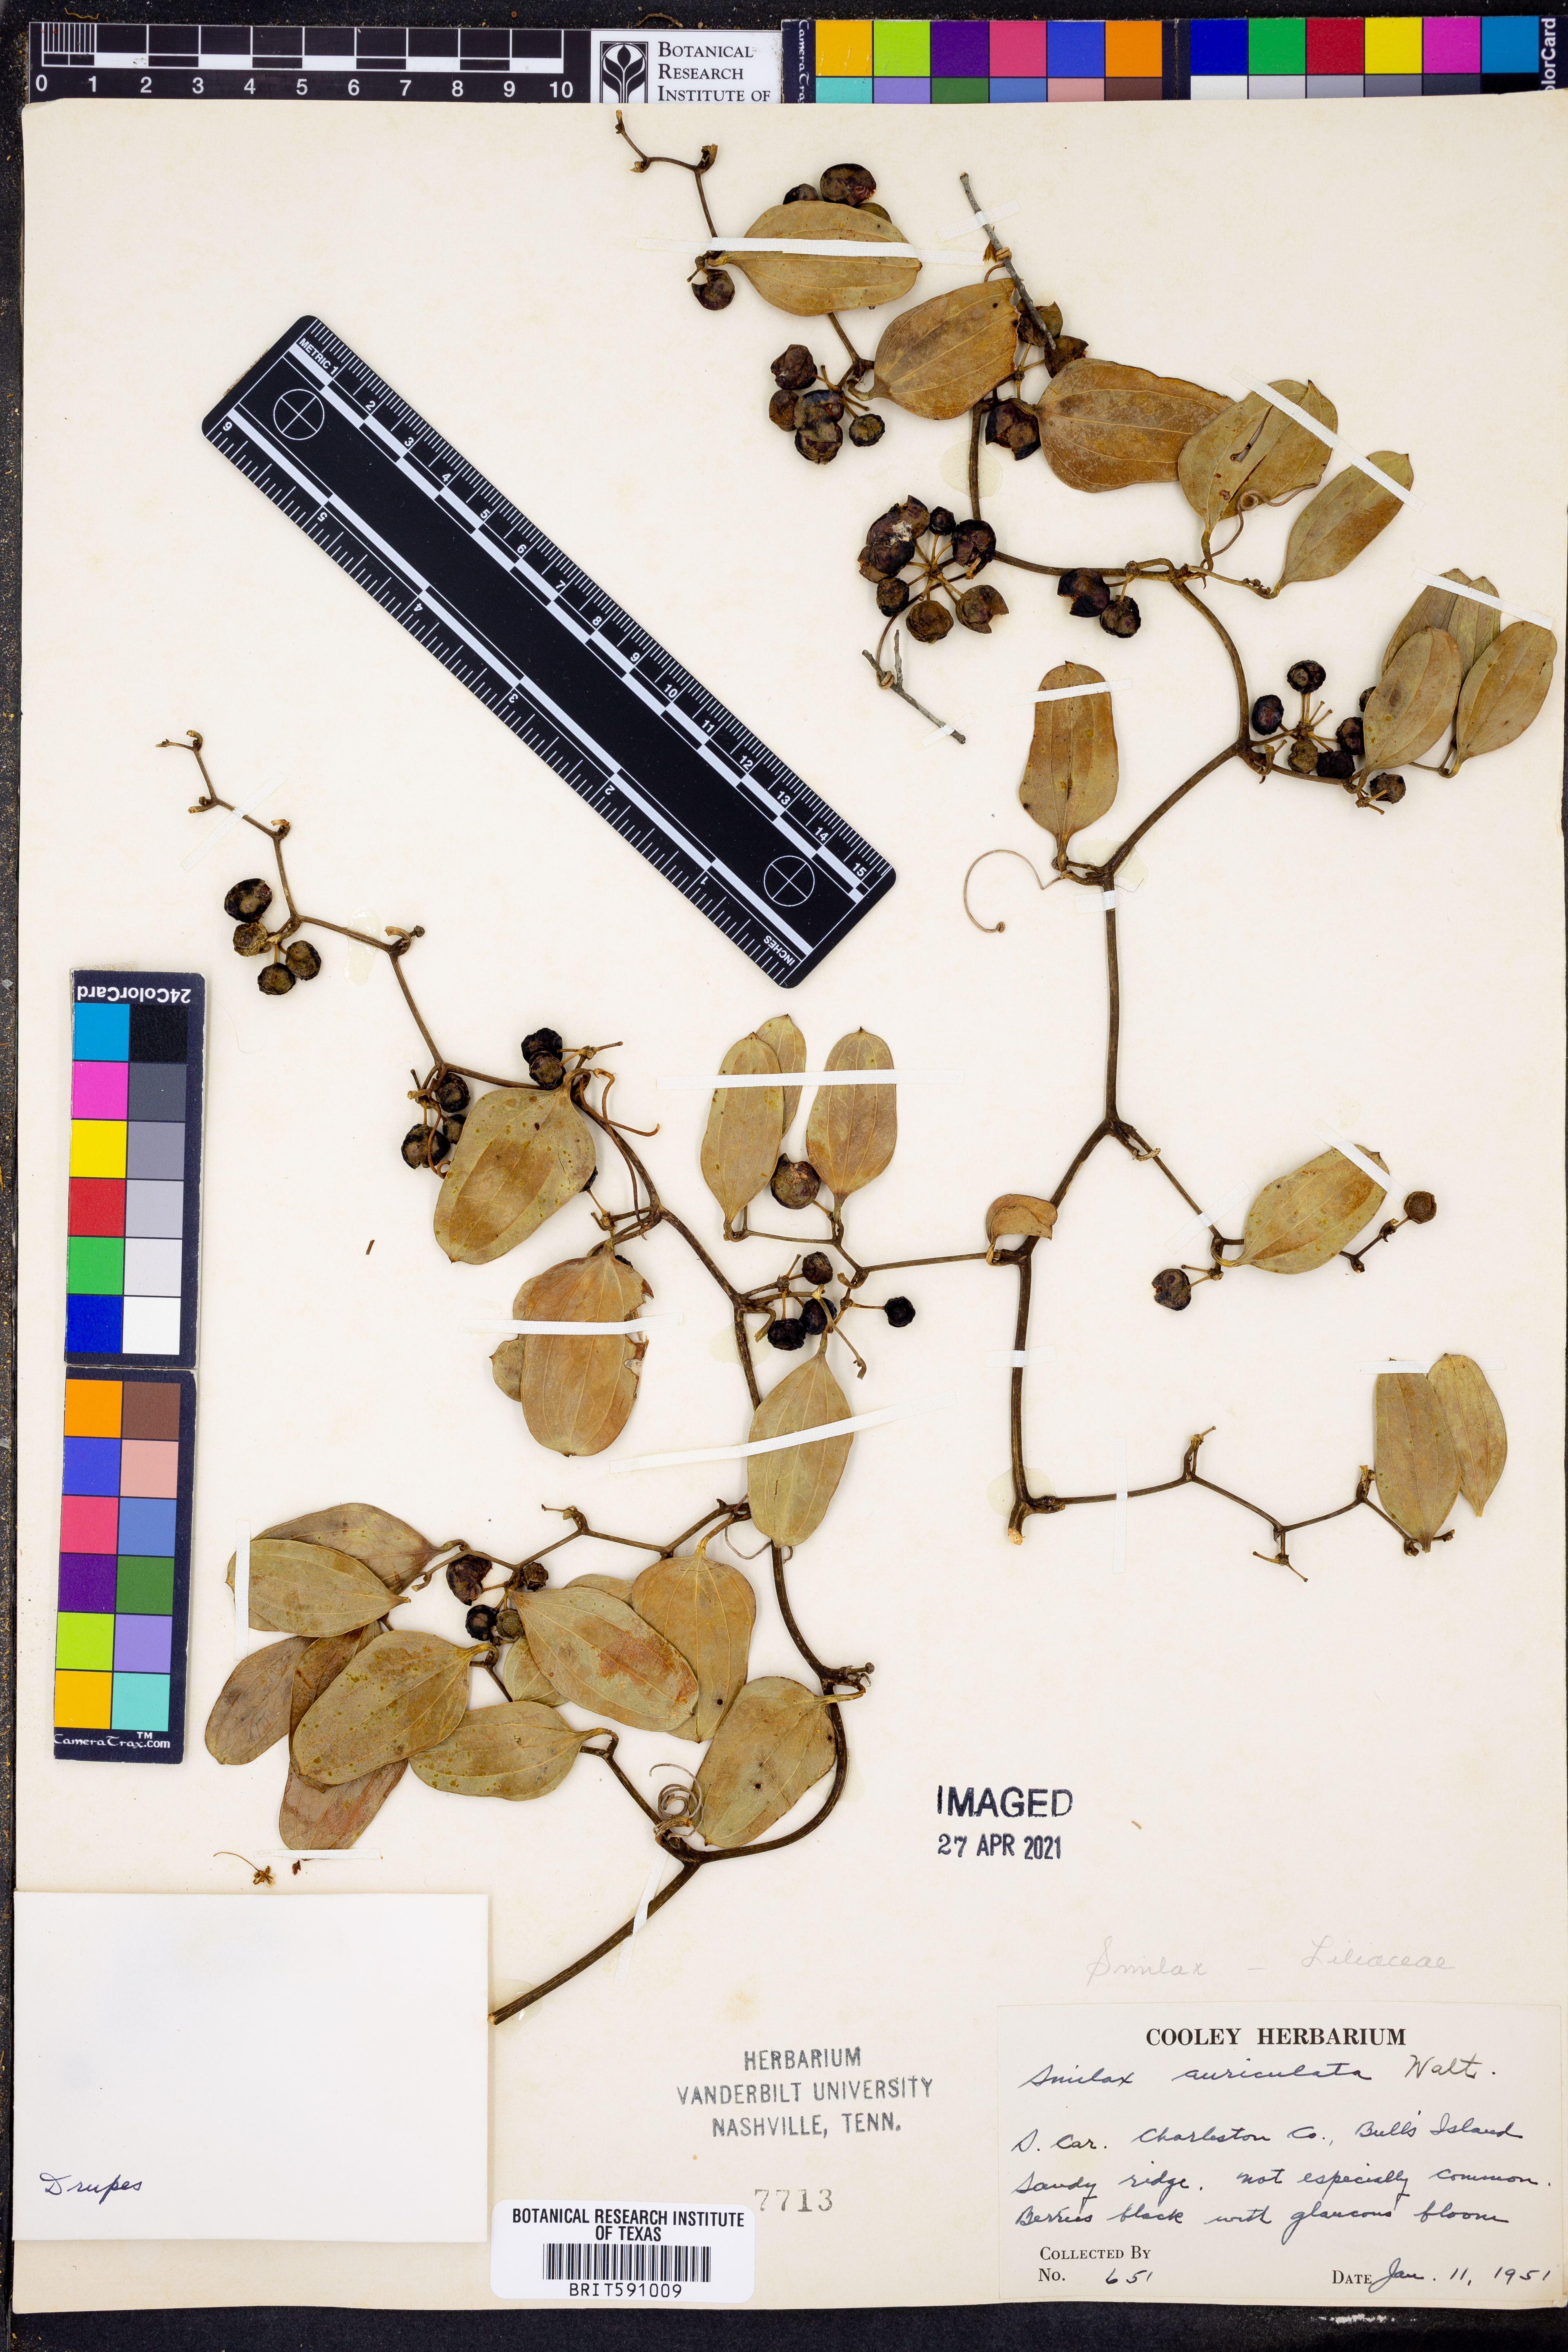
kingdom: Plantae
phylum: Tracheophyta
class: Liliopsida
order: Liliales
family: Smilacaceae
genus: Smilax
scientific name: Smilax auriculata
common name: Wild bamboo
